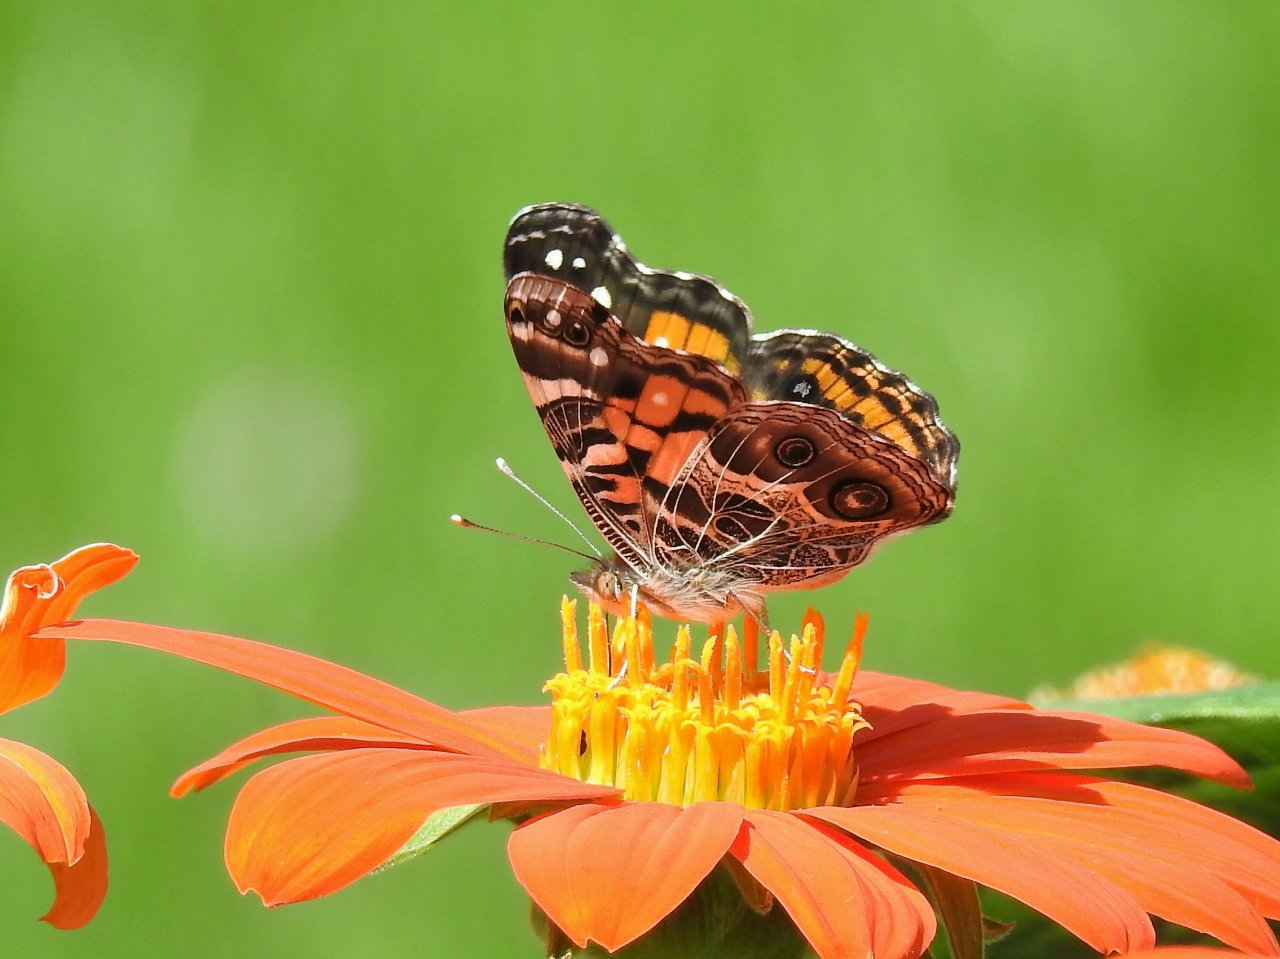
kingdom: Animalia
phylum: Arthropoda
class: Insecta
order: Lepidoptera
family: Nymphalidae
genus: Vanessa
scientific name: Vanessa virginiensis
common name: American Lady
